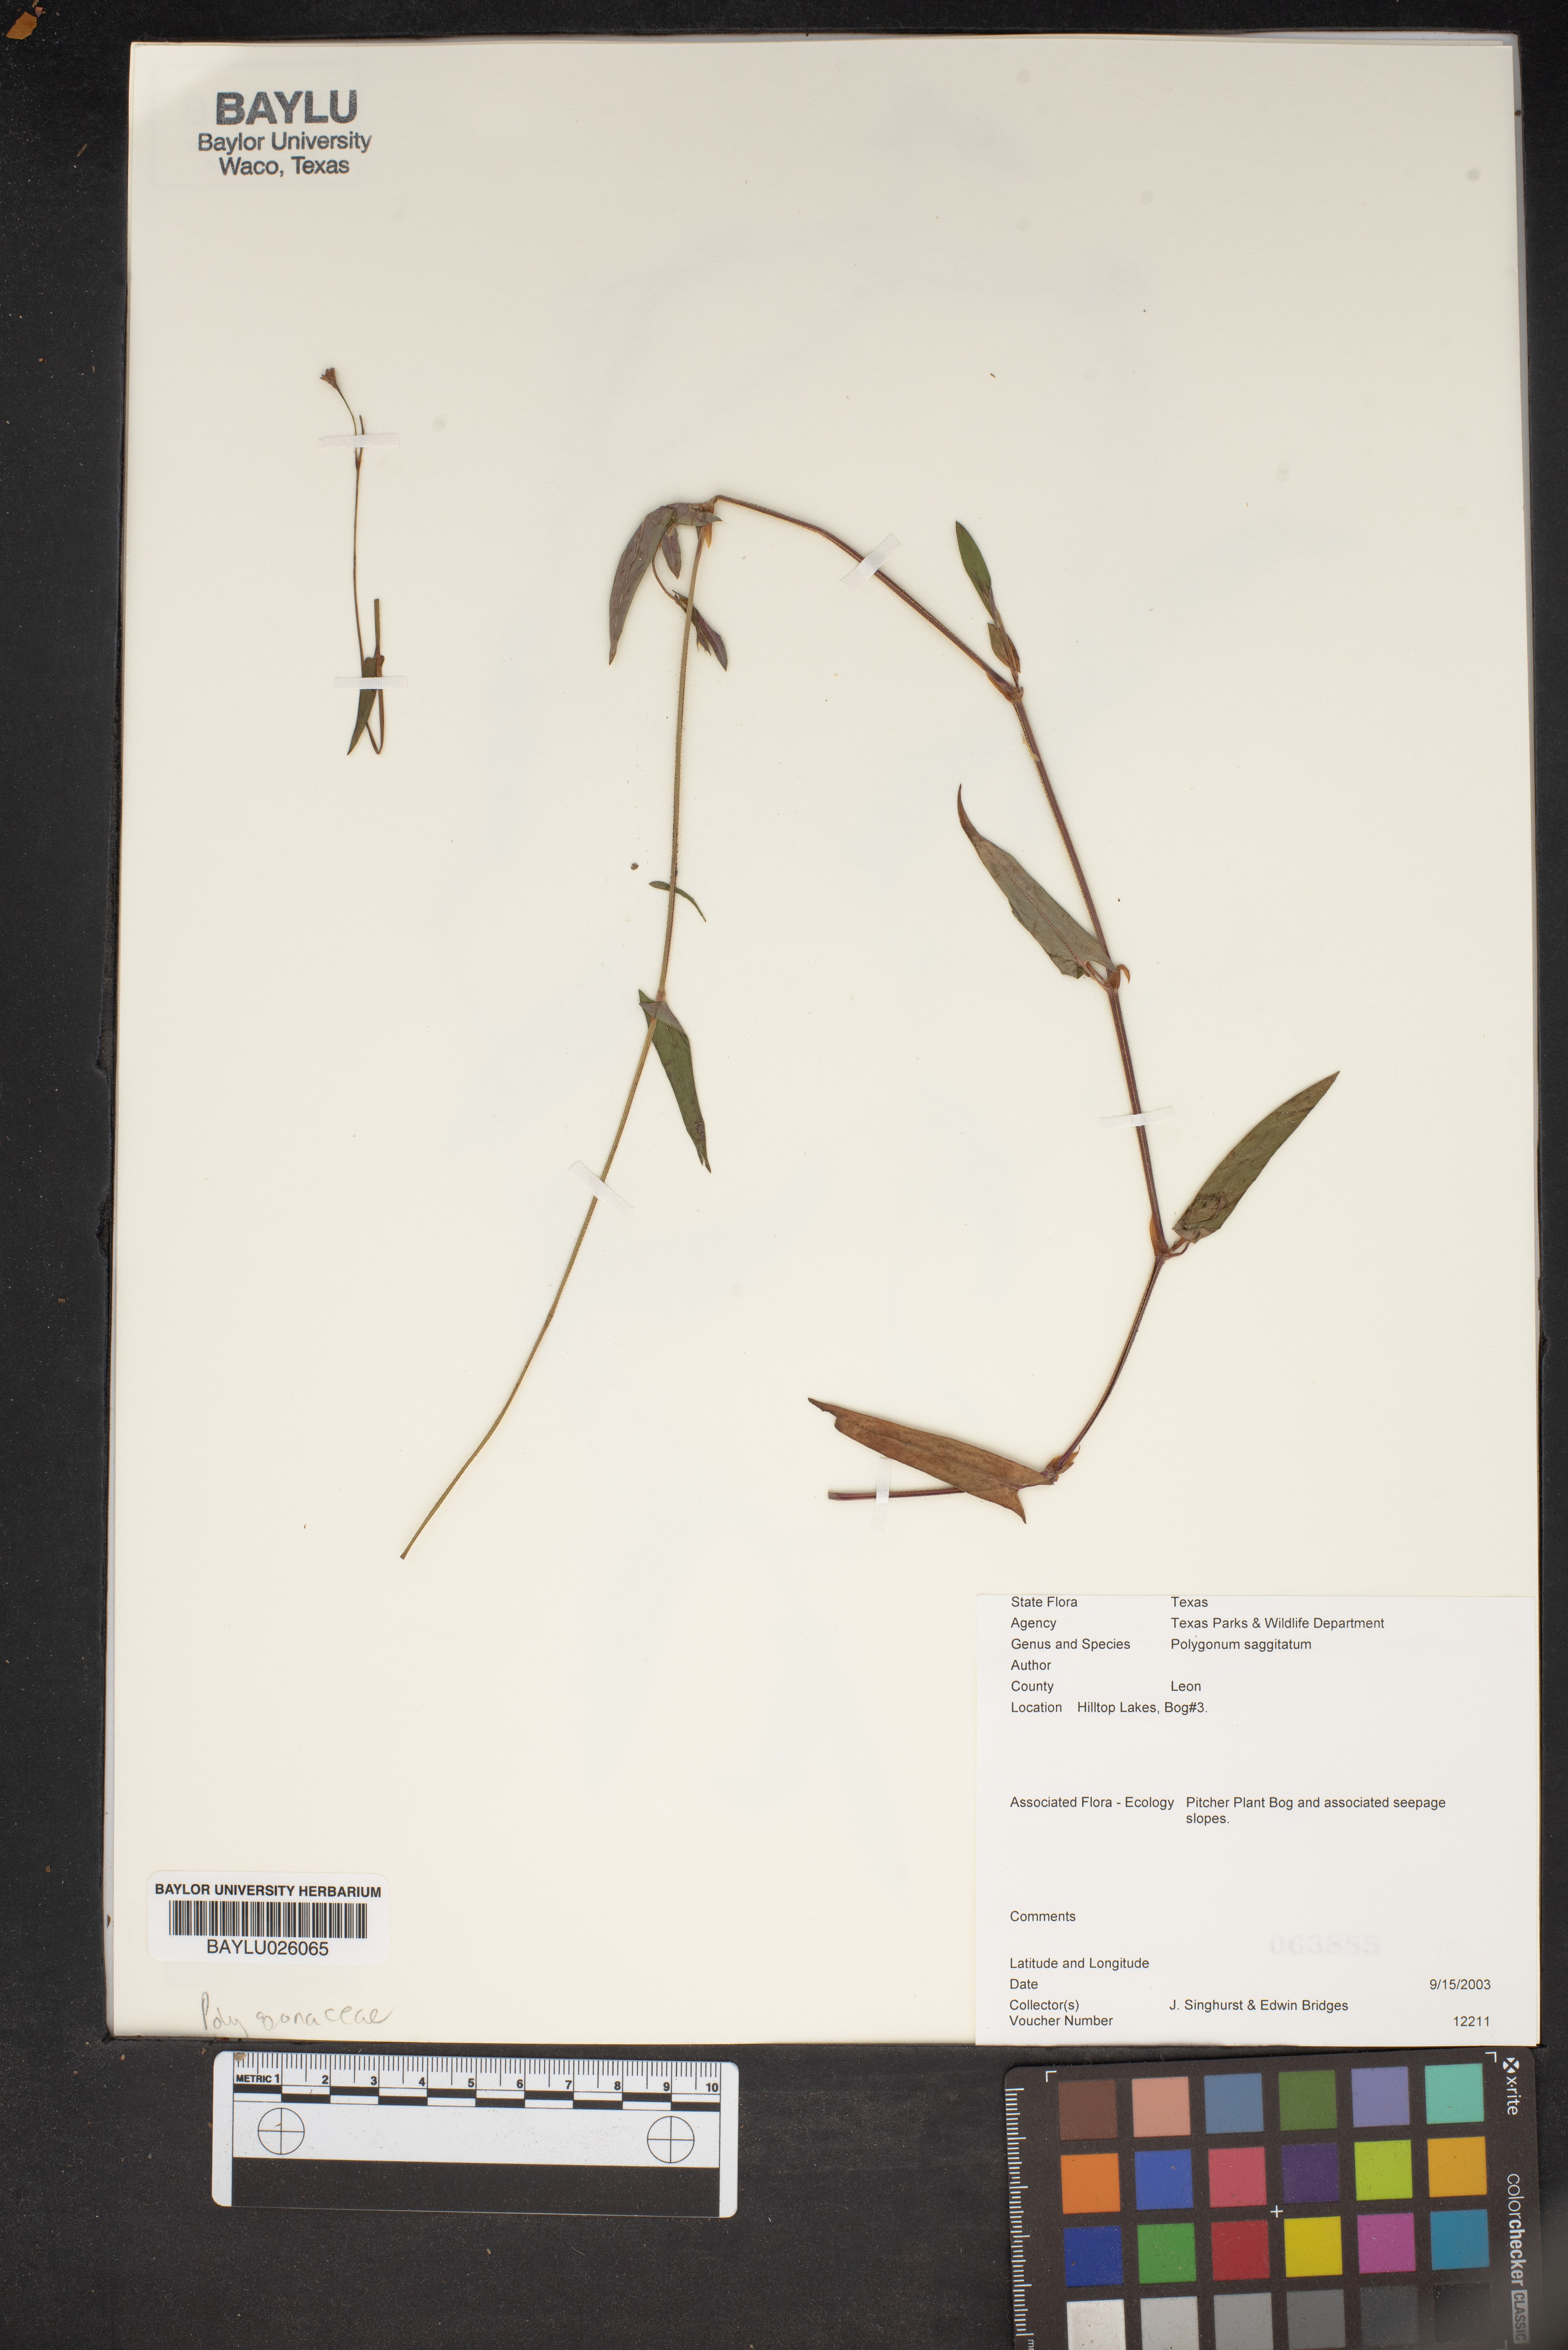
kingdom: Plantae
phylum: Tracheophyta
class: Magnoliopsida
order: Caryophyllales
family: Polygonaceae
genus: Persicaria
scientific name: Persicaria sagittata
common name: American tearthumb
